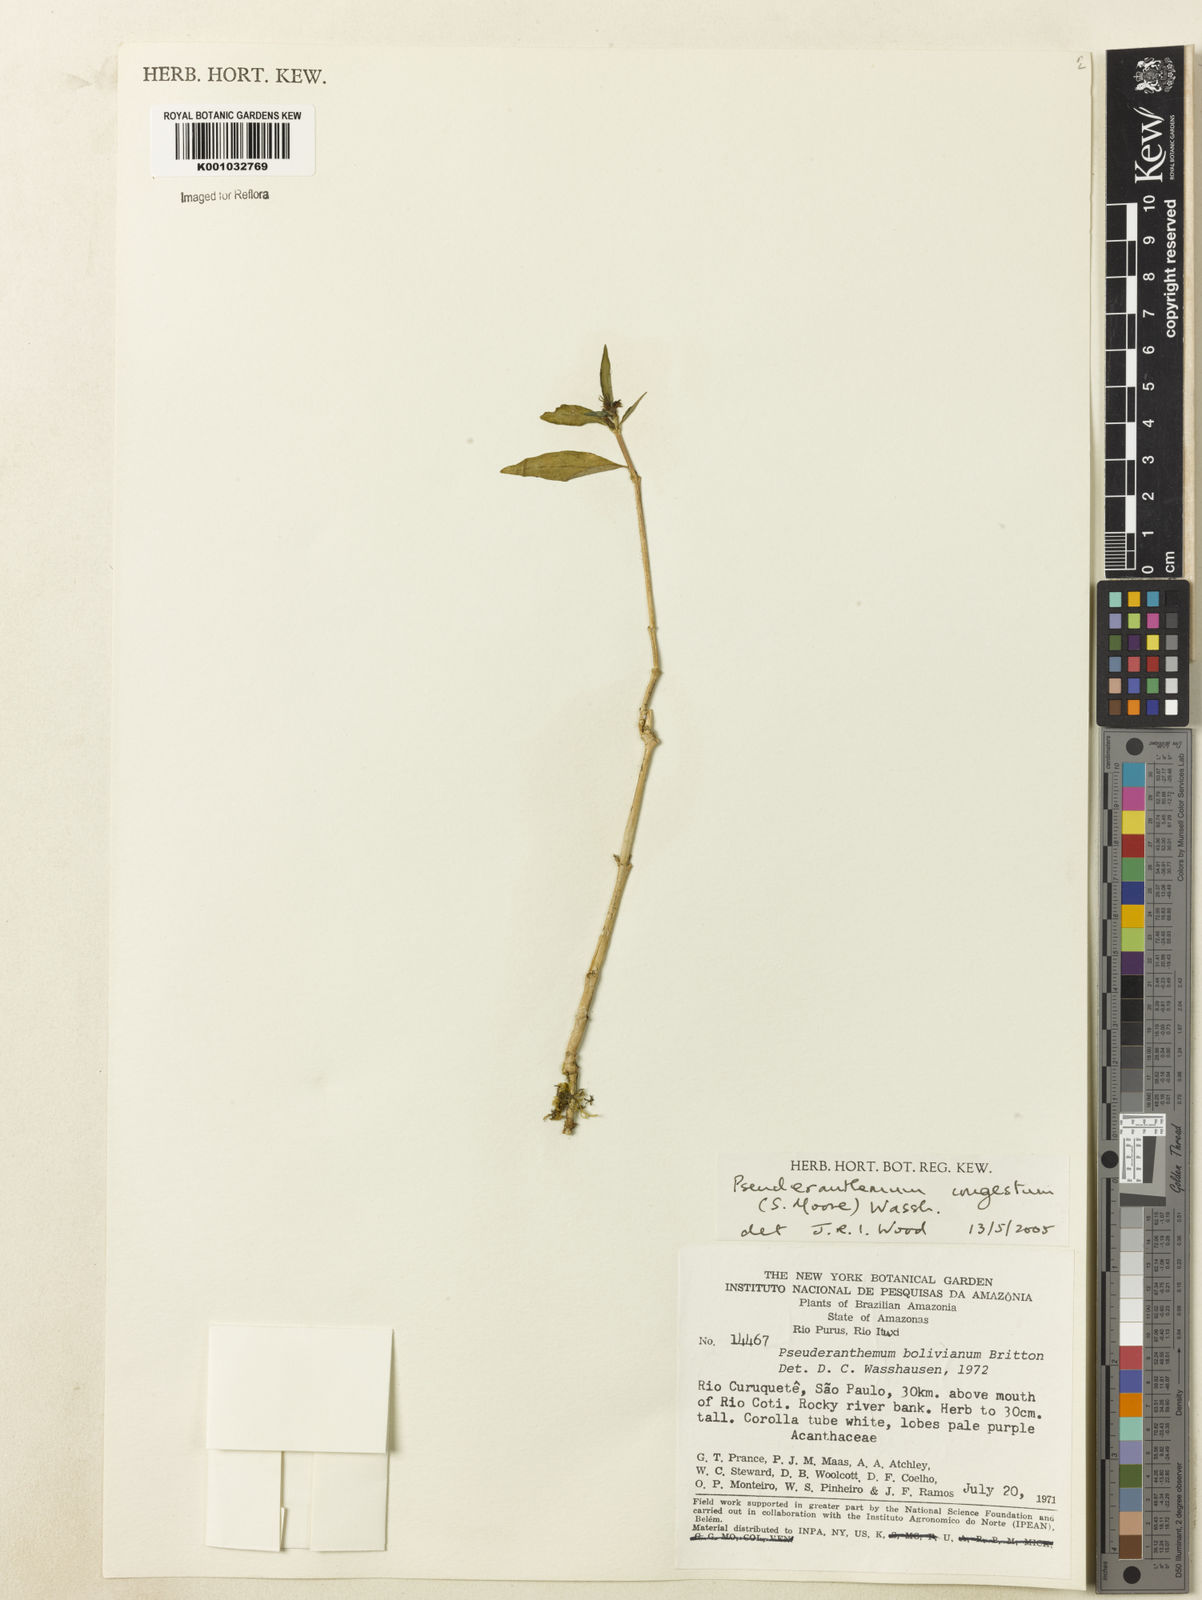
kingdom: Plantae
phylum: Tracheophyta
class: Magnoliopsida
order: Lamiales
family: Acanthaceae
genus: Pseuderanthemum
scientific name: Pseuderanthemum
